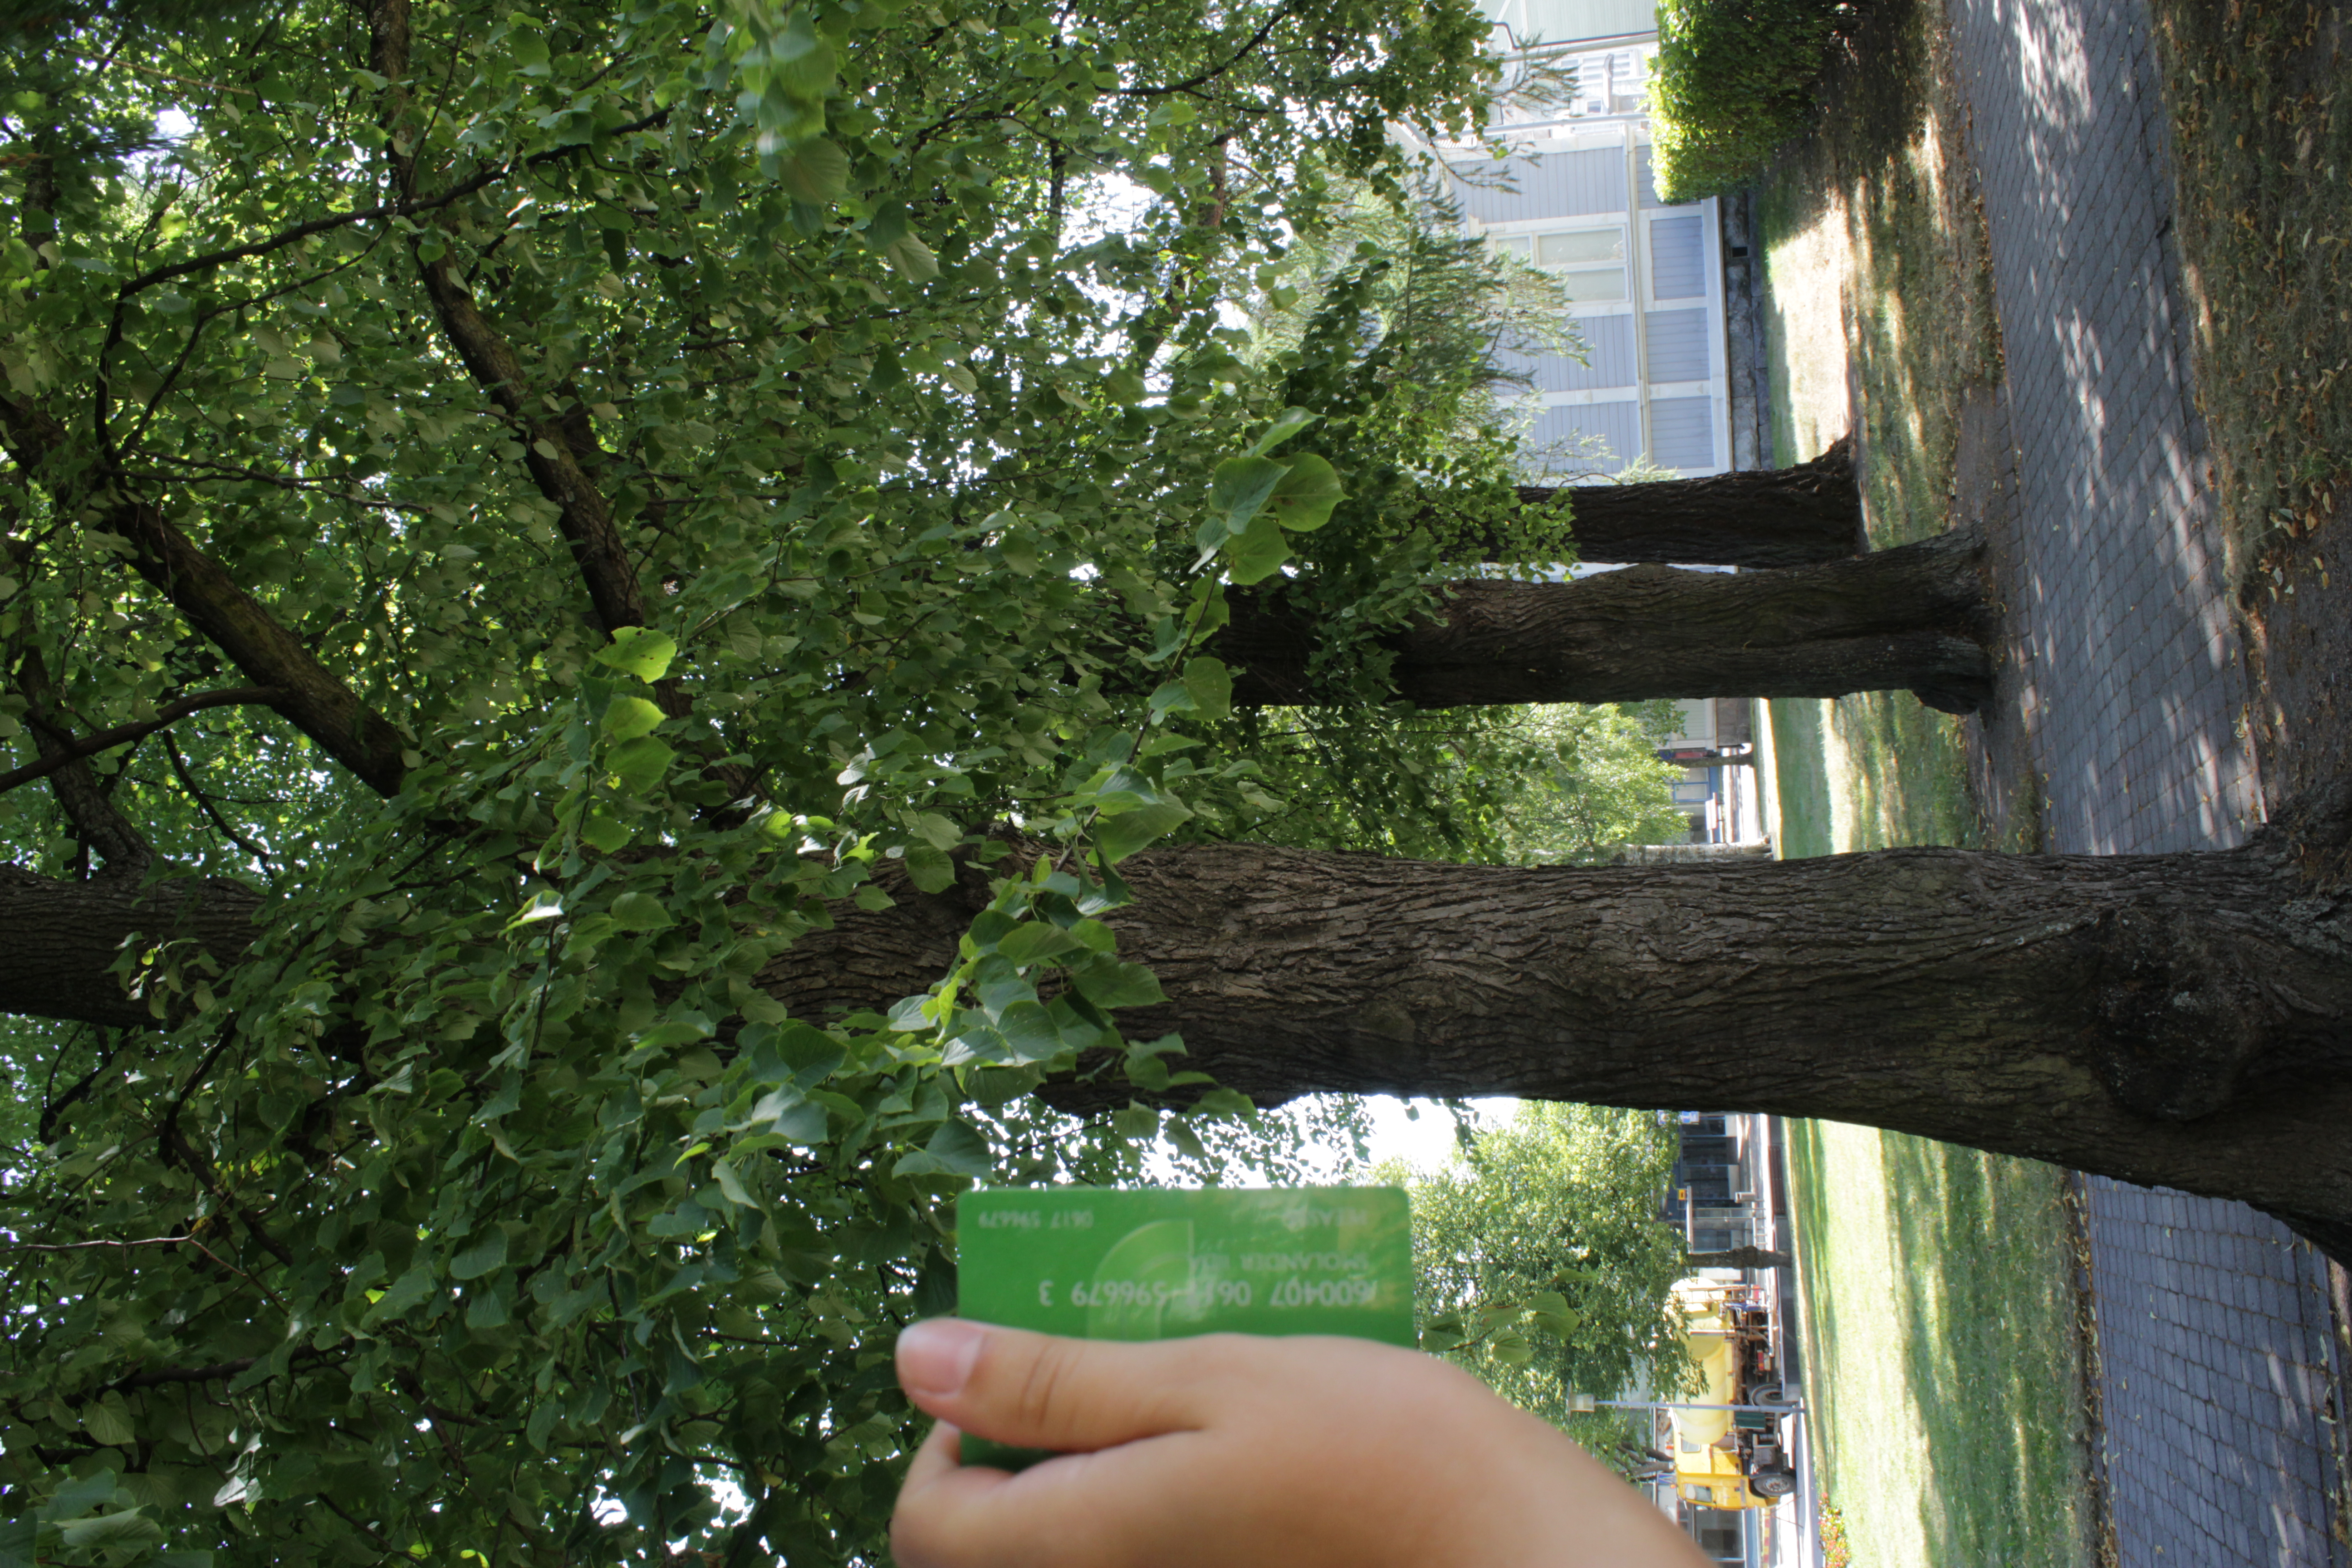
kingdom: Plantae
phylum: Tracheophyta
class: Magnoliopsida
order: Malvales
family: Malvaceae
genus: Tilia
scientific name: Tilia europaea
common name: European linden
